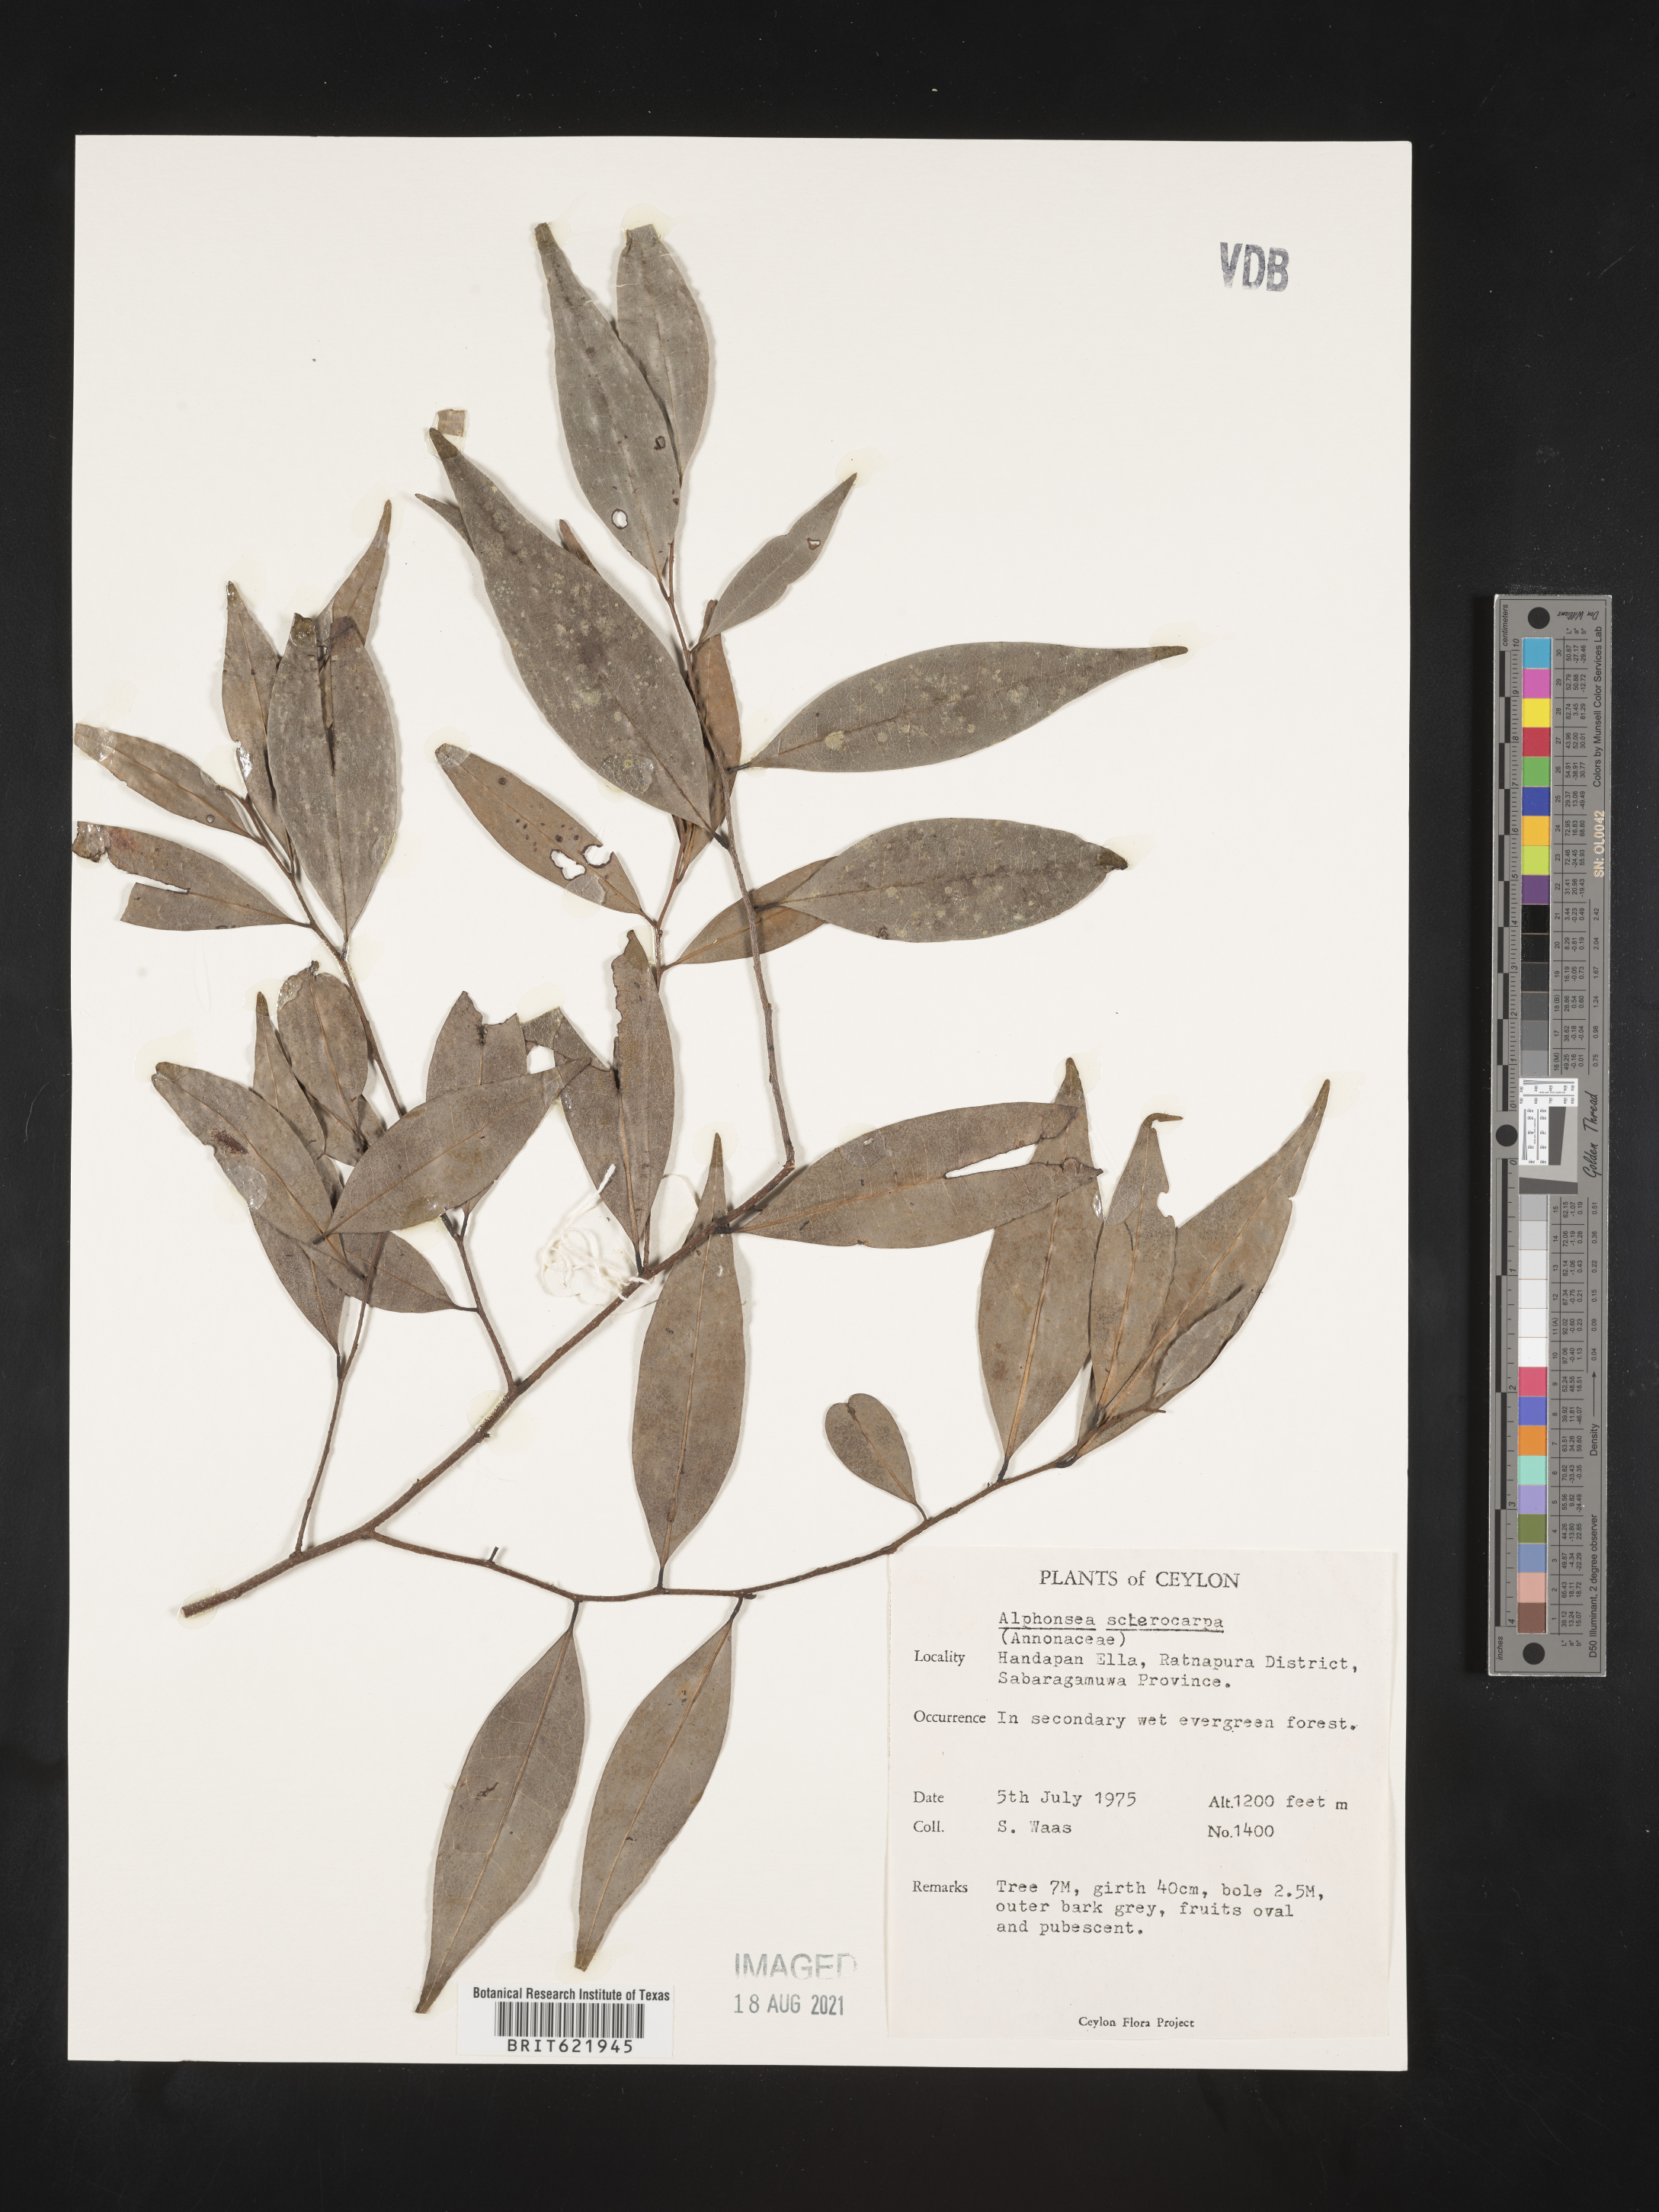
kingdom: Plantae
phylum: Tracheophyta
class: Magnoliopsida
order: Magnoliales
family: Annonaceae
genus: Alphonsea
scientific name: Alphonsea lutea
